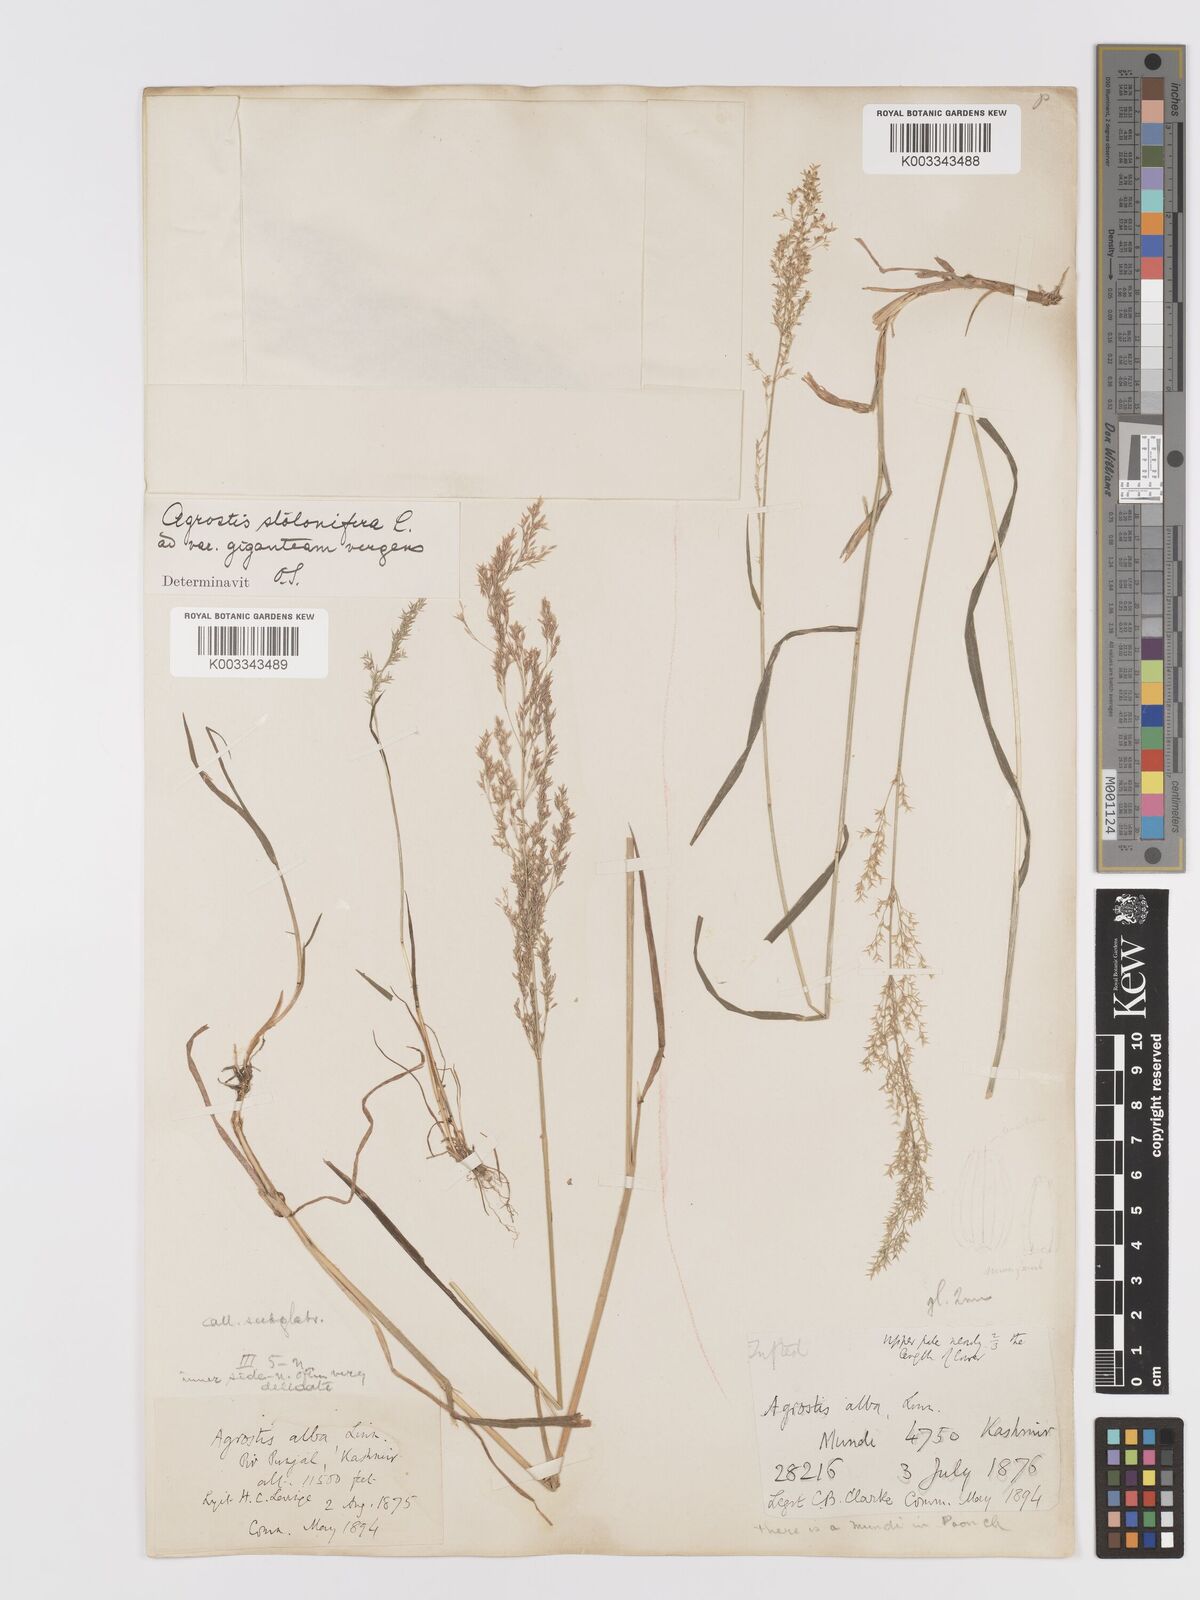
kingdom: Plantae
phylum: Tracheophyta
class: Liliopsida
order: Poales
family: Poaceae
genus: Agrostis
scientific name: Agrostis gigantea
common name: Black bent
